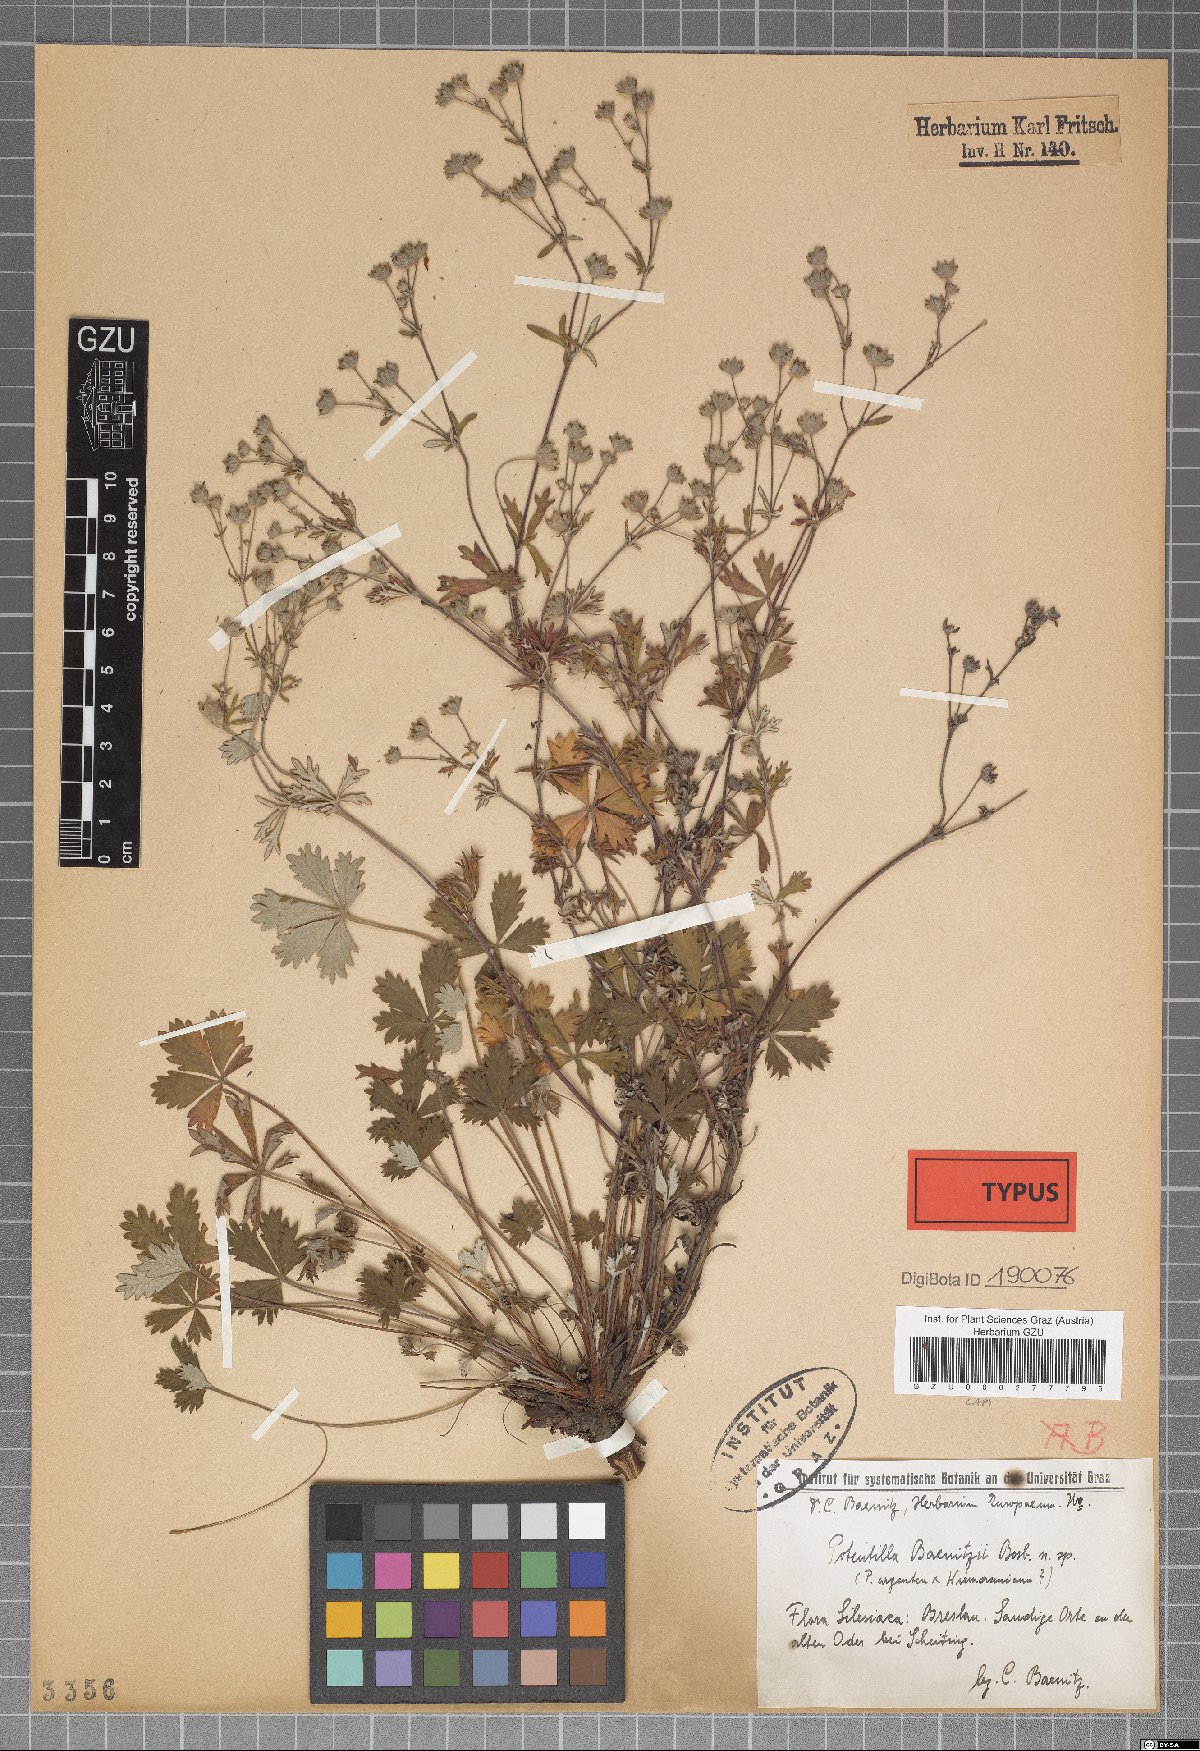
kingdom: Plantae
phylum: Tracheophyta
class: Magnoliopsida
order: Rosales
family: Rosaceae
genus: Potentilla
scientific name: Potentilla argentea
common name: Hoary cinquefoil
